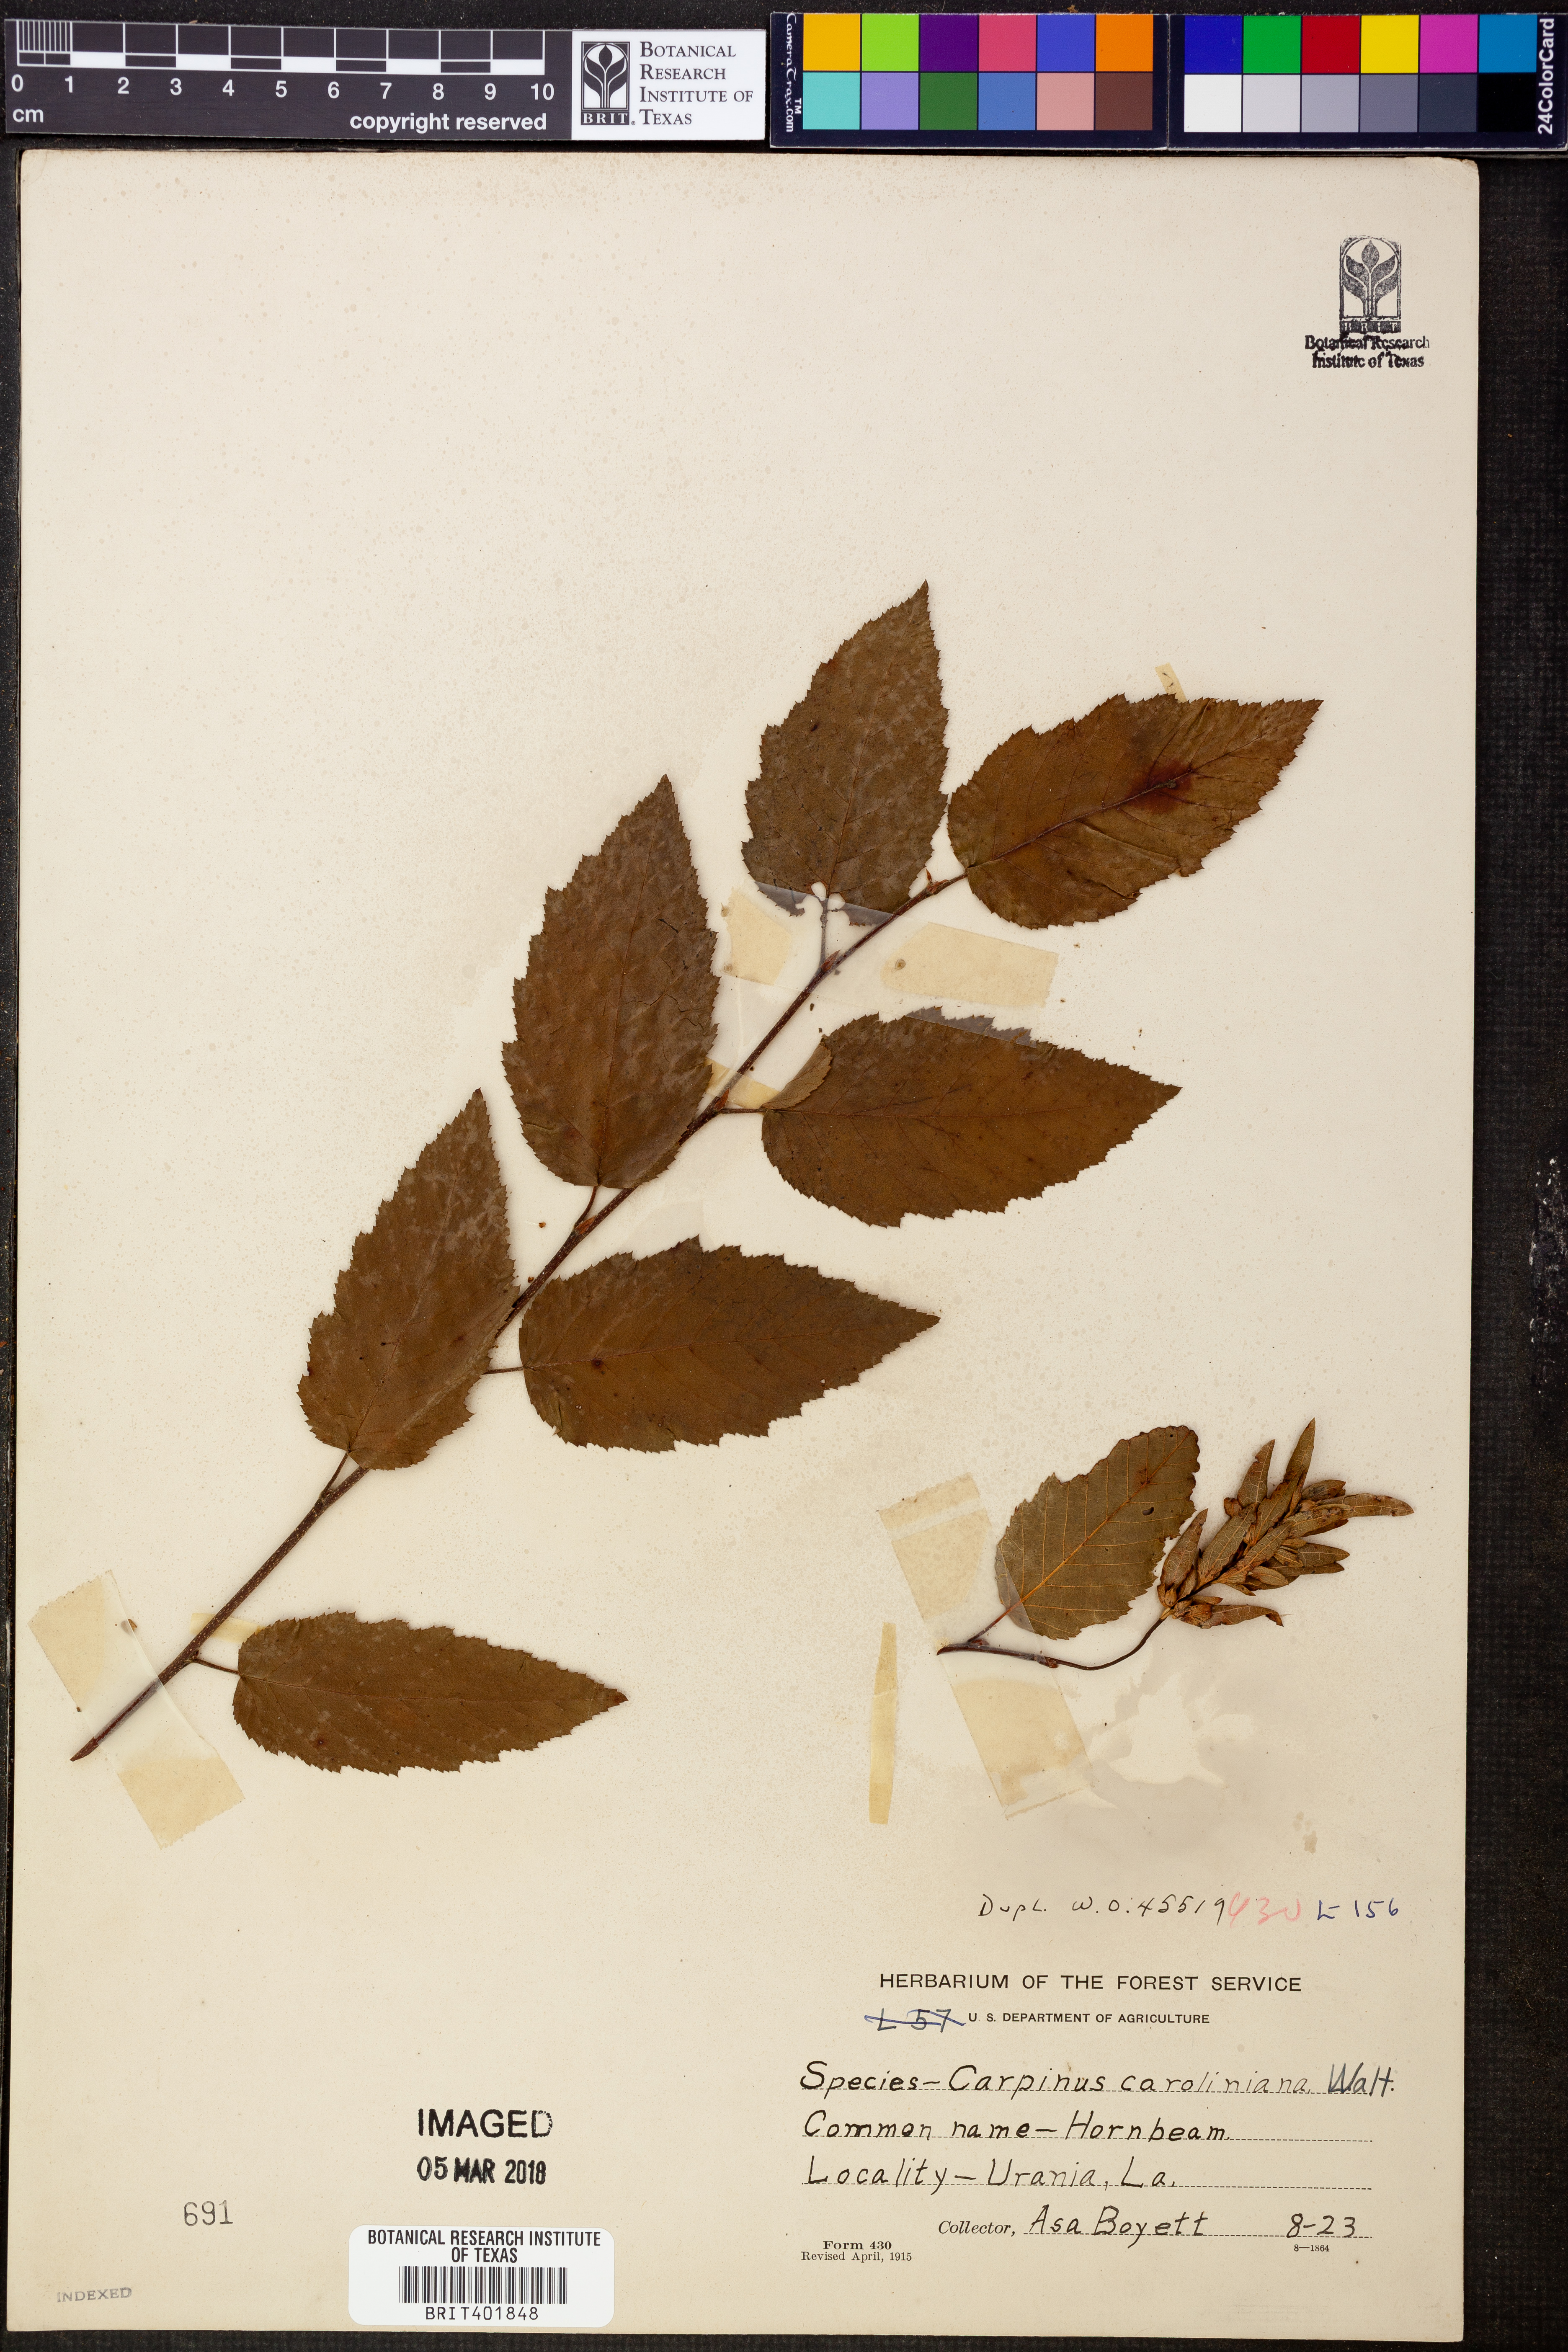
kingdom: Plantae
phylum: Tracheophyta
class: Magnoliopsida
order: Fagales
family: Betulaceae
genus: Carpinus
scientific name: Carpinus caroliniana
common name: American hornbeam
